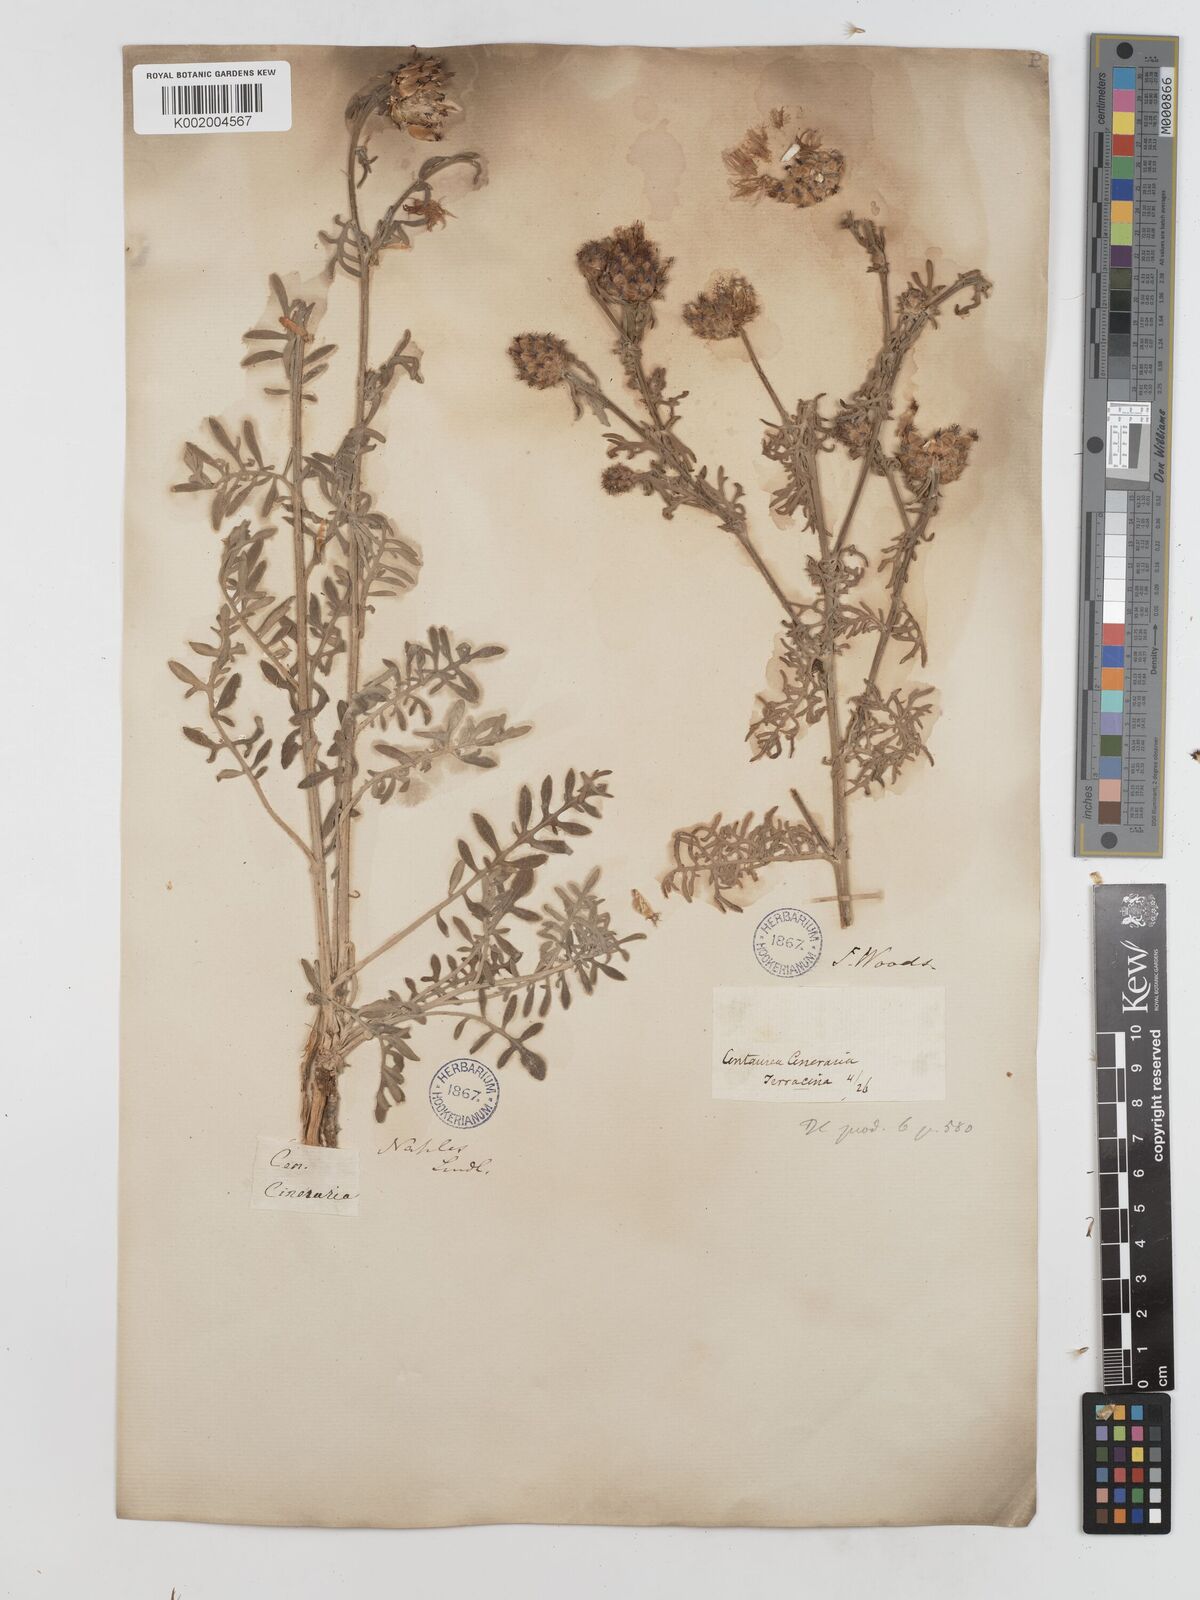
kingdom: Plantae
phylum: Tracheophyta
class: Magnoliopsida
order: Asterales
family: Asteraceae
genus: Centaurea
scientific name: Centaurea cineraria
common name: Dusty miller
